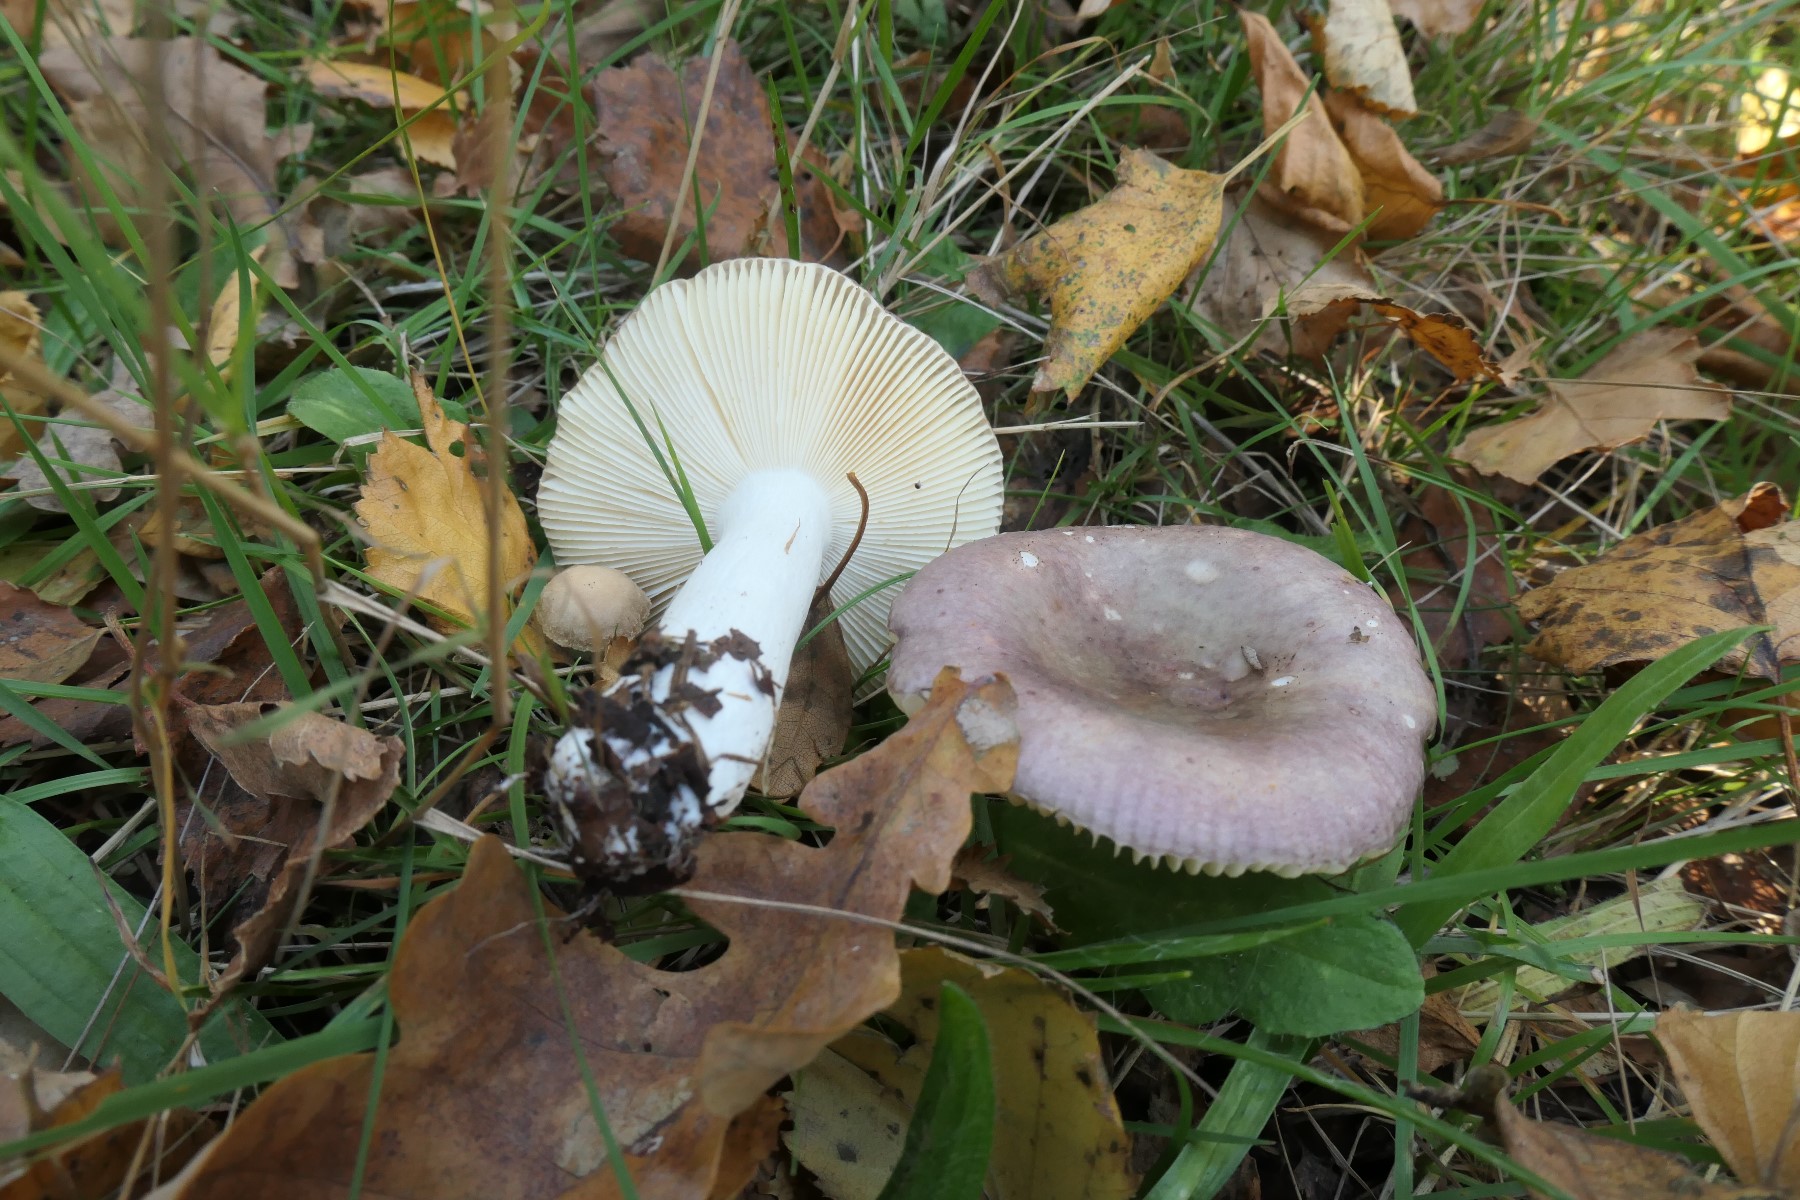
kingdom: Fungi
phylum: Basidiomycota
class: Agaricomycetes
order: Russulales
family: Russulaceae
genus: Russula
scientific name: Russula versicolor
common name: foranderlig skørhat
